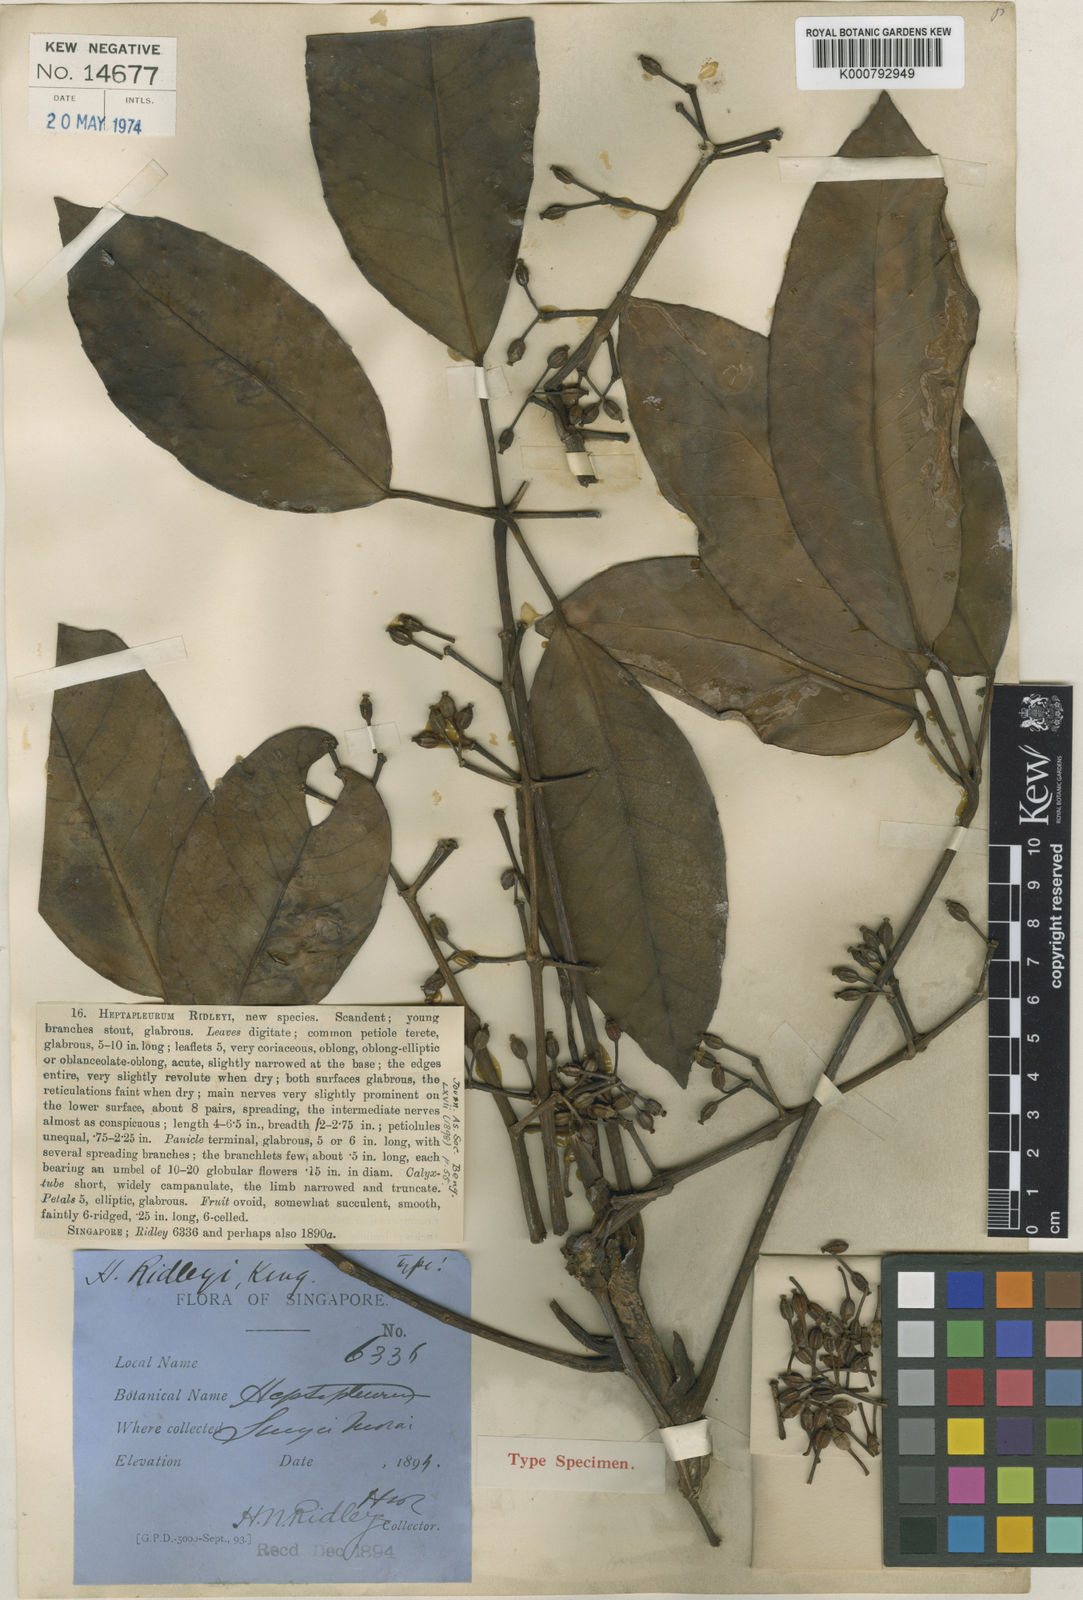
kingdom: Plantae
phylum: Tracheophyta
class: Magnoliopsida
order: Apiales
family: Araliaceae
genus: Heptapleurum
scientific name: Heptapleurum ridleyi
